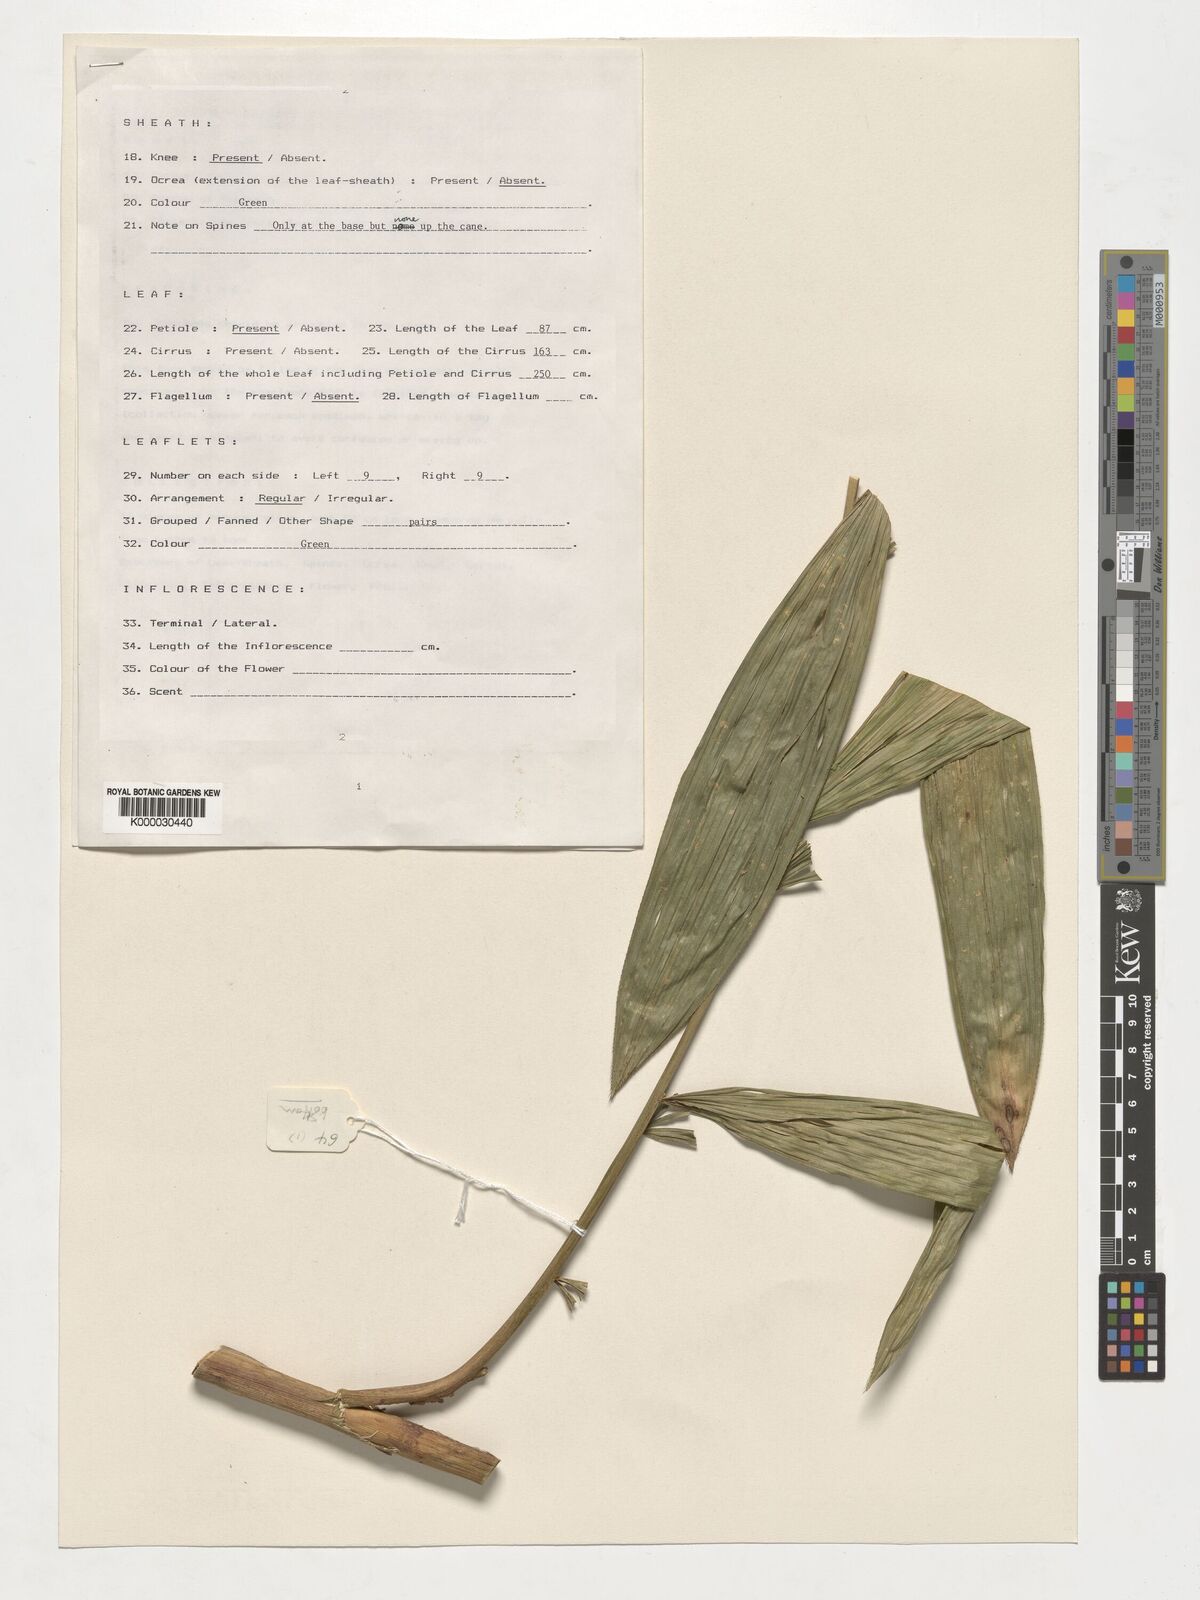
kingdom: Plantae
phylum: Tracheophyta
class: Liliopsida
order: Arecales
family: Arecaceae
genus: Calamus
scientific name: Calamus aruensis
